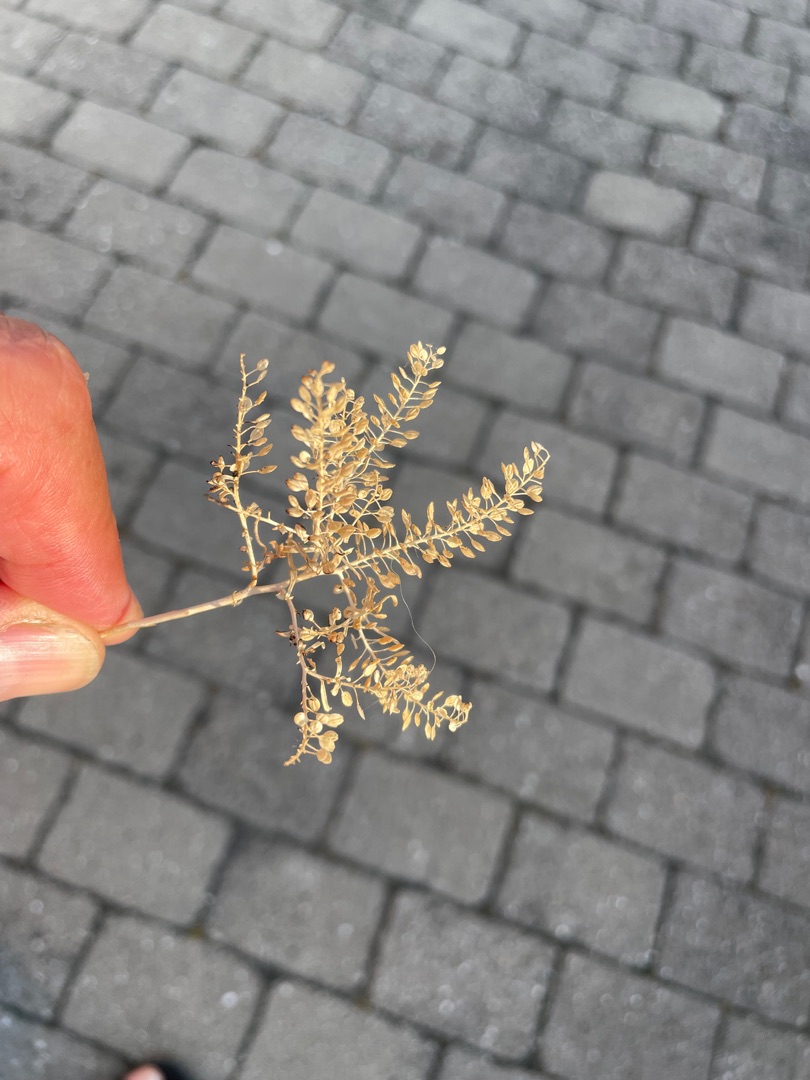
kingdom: Plantae
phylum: Tracheophyta
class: Magnoliopsida
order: Brassicales
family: Brassicaceae
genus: Lepidium
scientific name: Lepidium ruderale
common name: Stinkende karse
